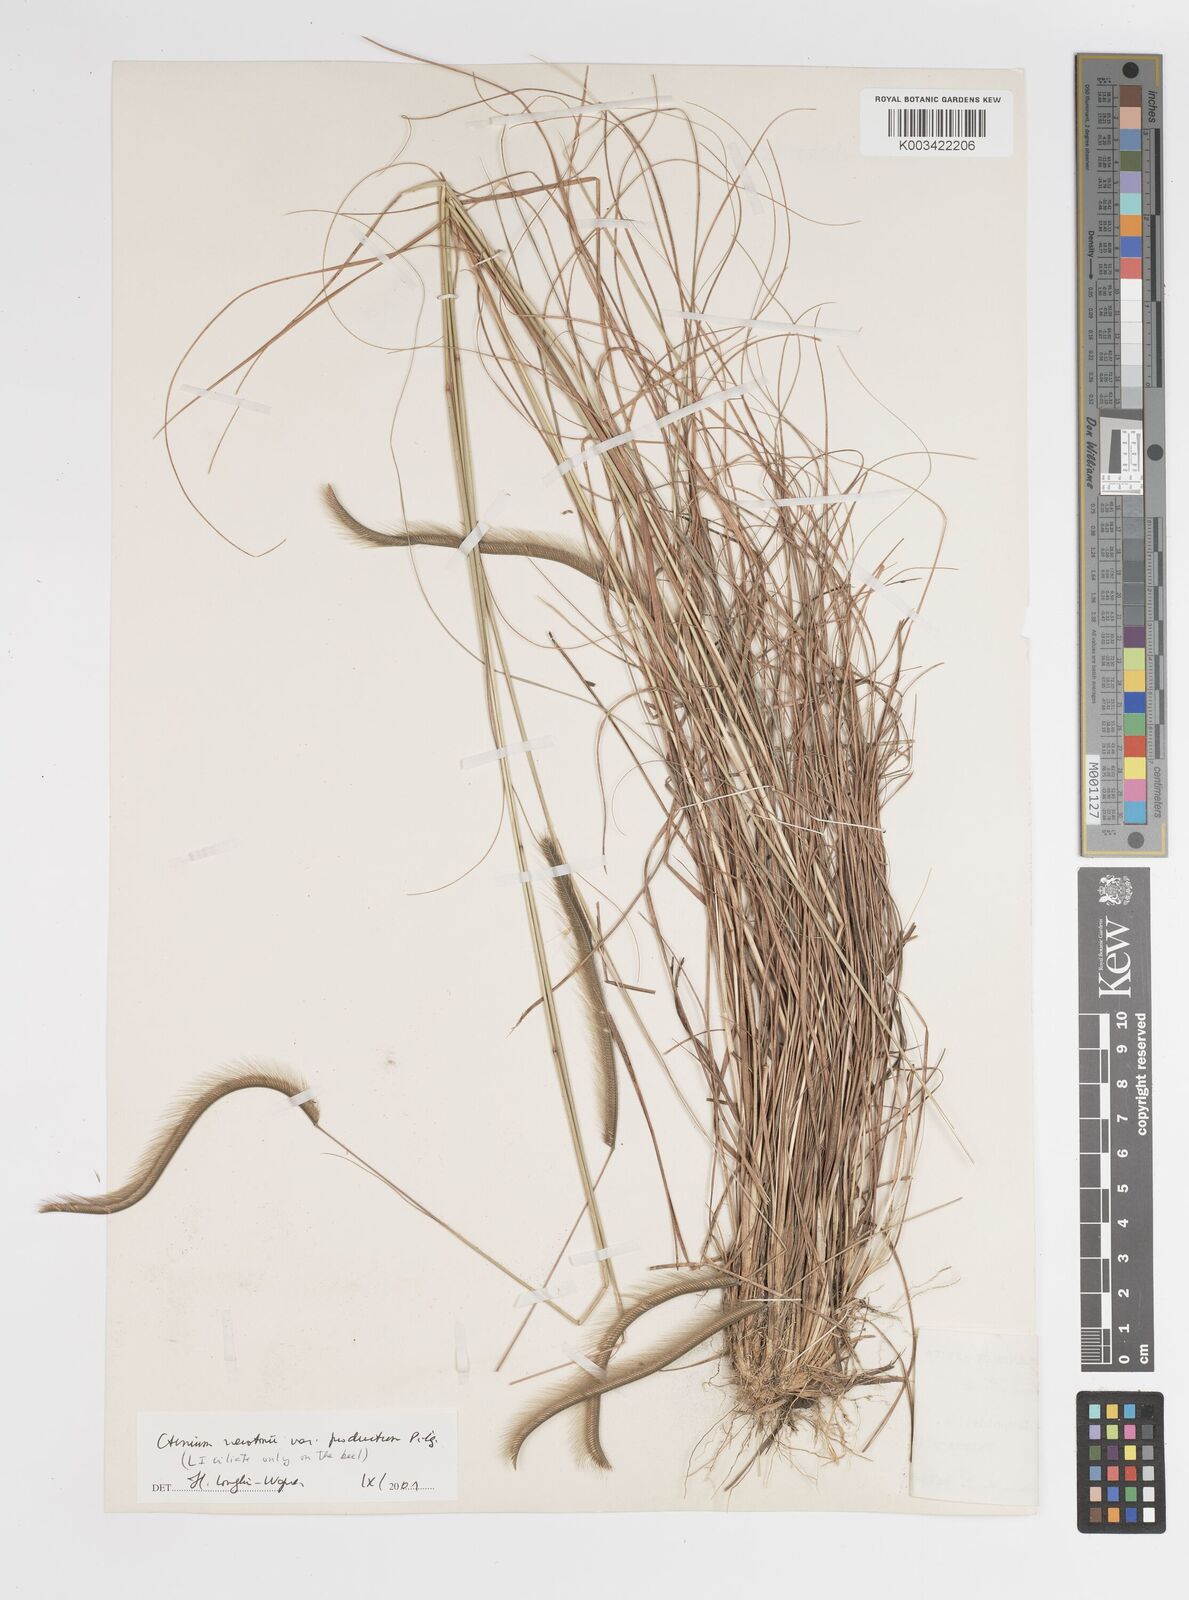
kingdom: Plantae
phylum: Tracheophyta
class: Liliopsida
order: Poales
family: Poaceae
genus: Ctenium
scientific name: Ctenium newtonii
